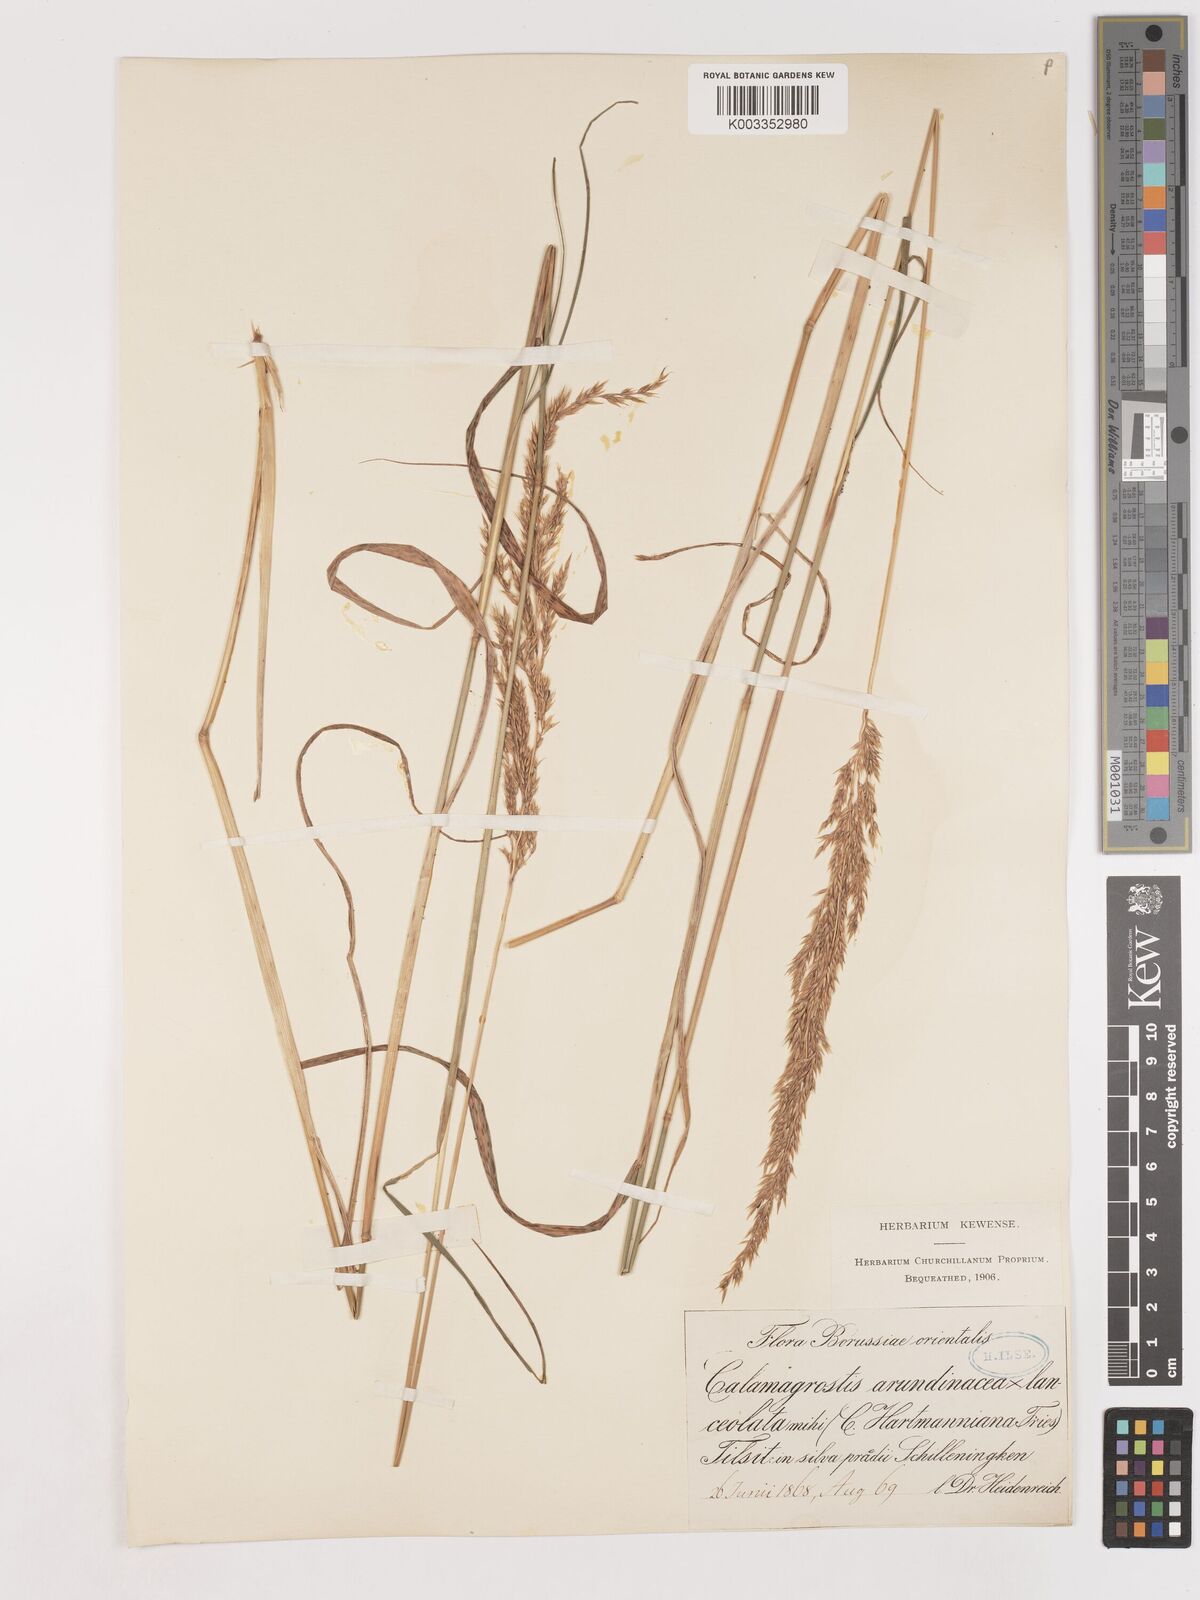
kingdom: Plantae
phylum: Tracheophyta
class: Liliopsida
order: Poales
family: Poaceae
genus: Calamagrostis
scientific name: Calamagrostis canescens
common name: Purple small-reed
